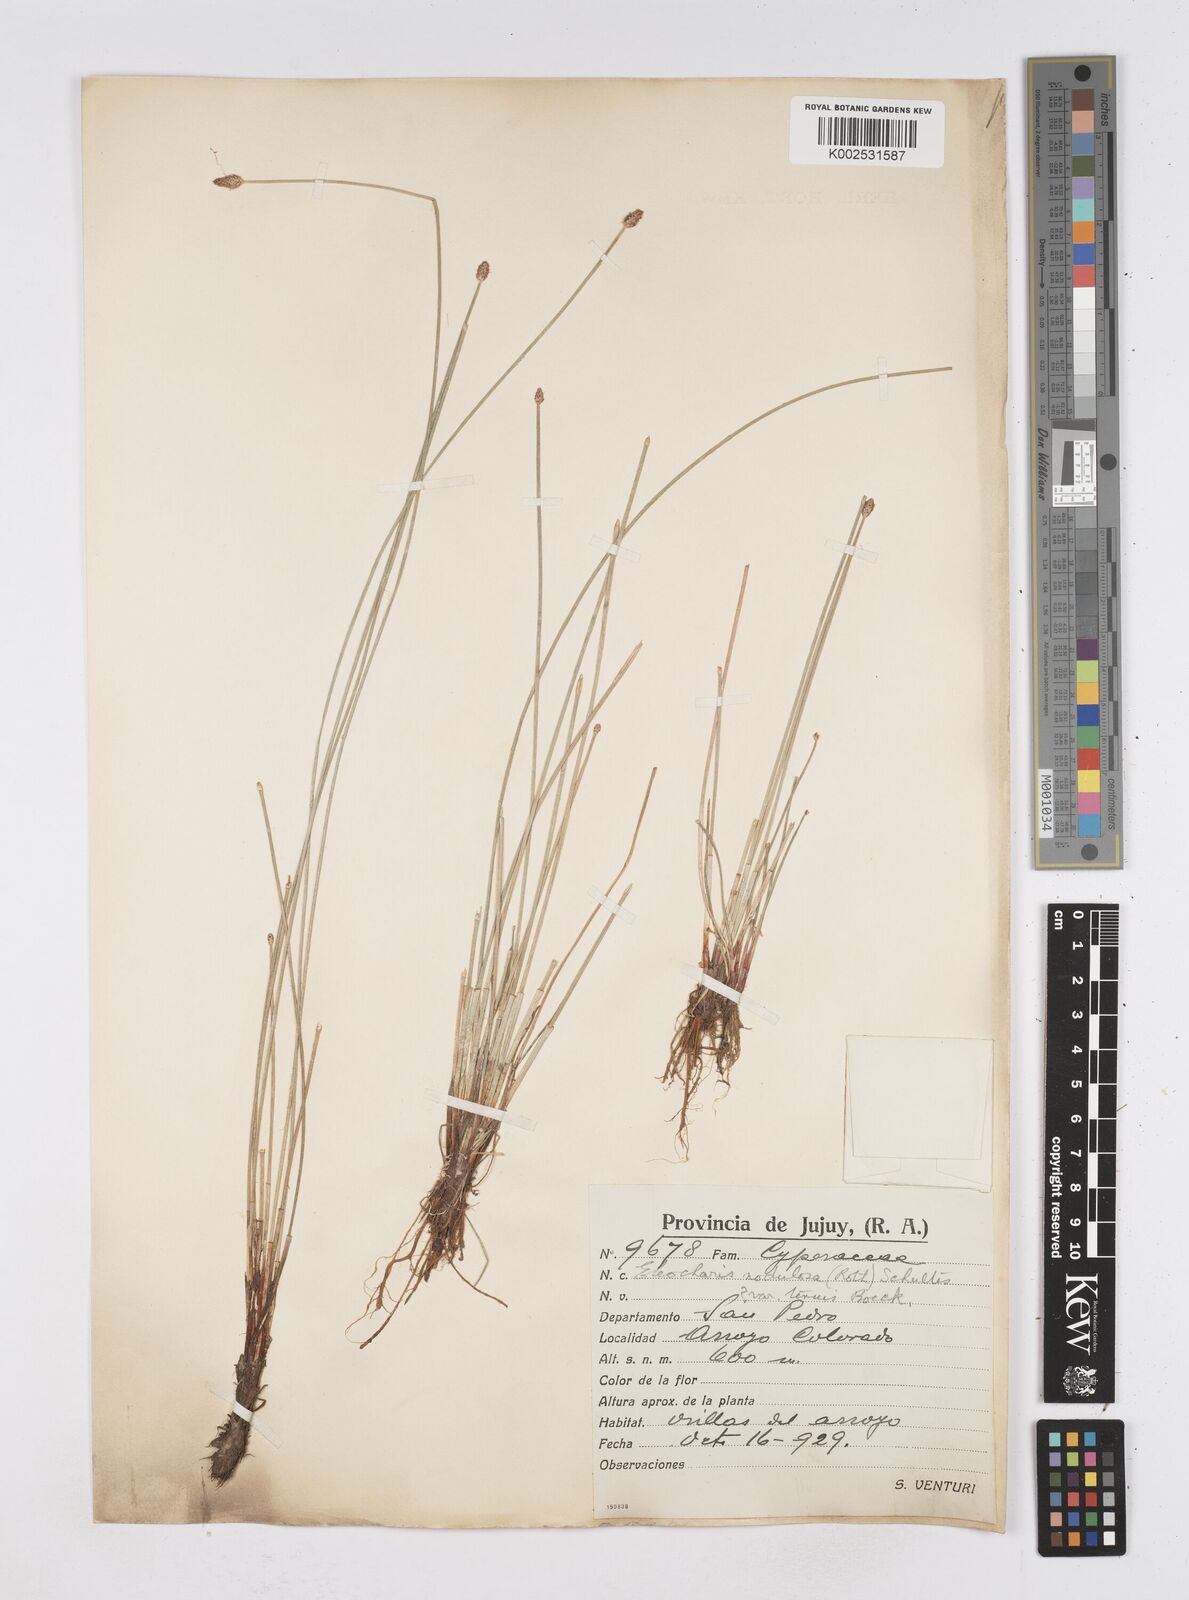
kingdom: Plantae
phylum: Tracheophyta
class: Liliopsida
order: Poales
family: Cyperaceae
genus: Eleocharis
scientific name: Eleocharis montana
